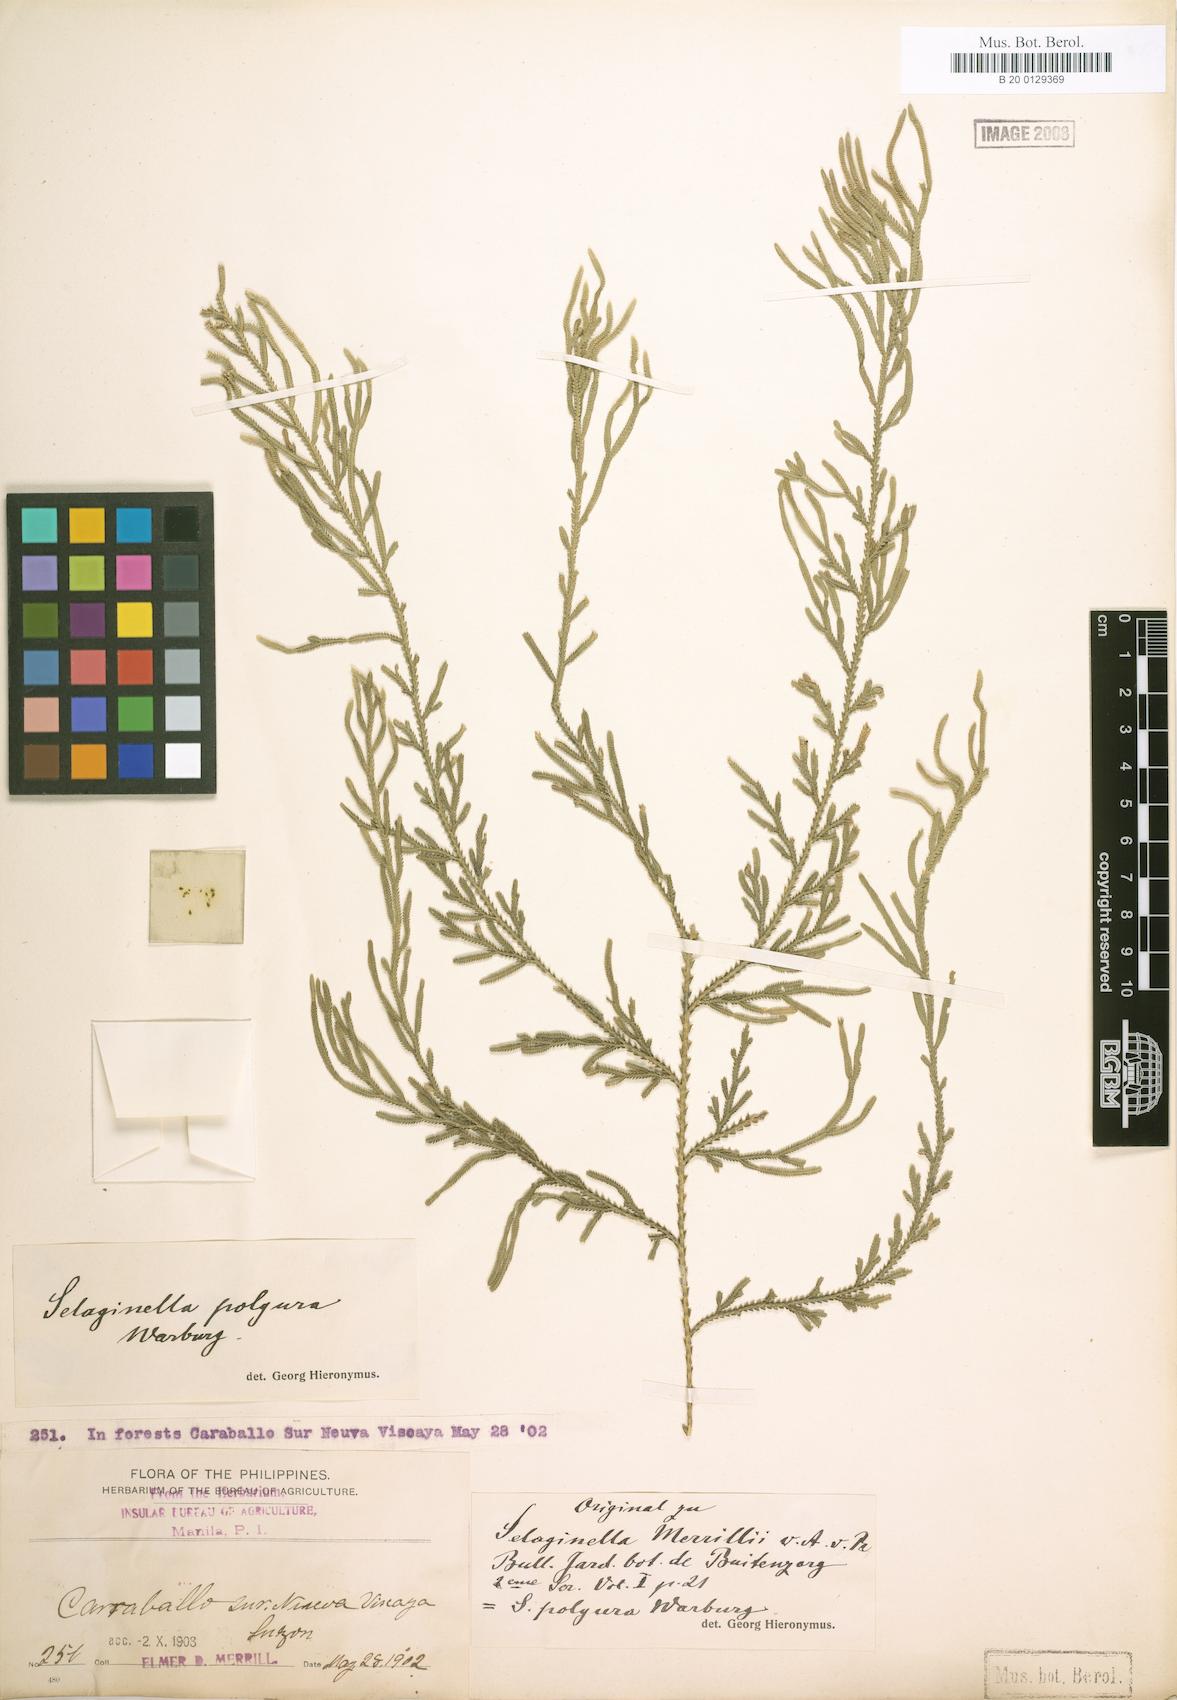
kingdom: Plantae
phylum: Tracheophyta
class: Lycopodiopsida
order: Selaginellales
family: Selaginellaceae
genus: Selaginella
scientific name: Selaginella involvens
